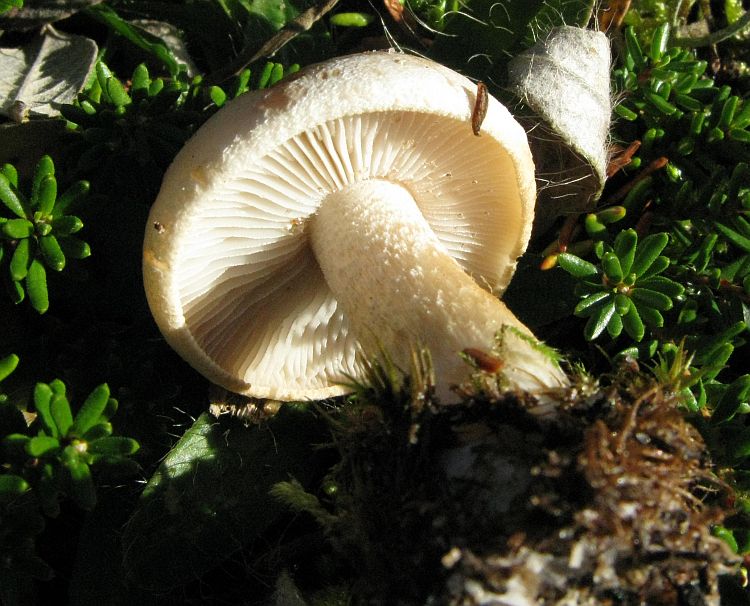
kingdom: Fungi
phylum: Basidiomycota
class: Agaricomycetes
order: Agaricales
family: Hymenogastraceae
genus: Hebeloma
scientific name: Hebeloma crustuliniforme
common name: almindelig tåreblad
